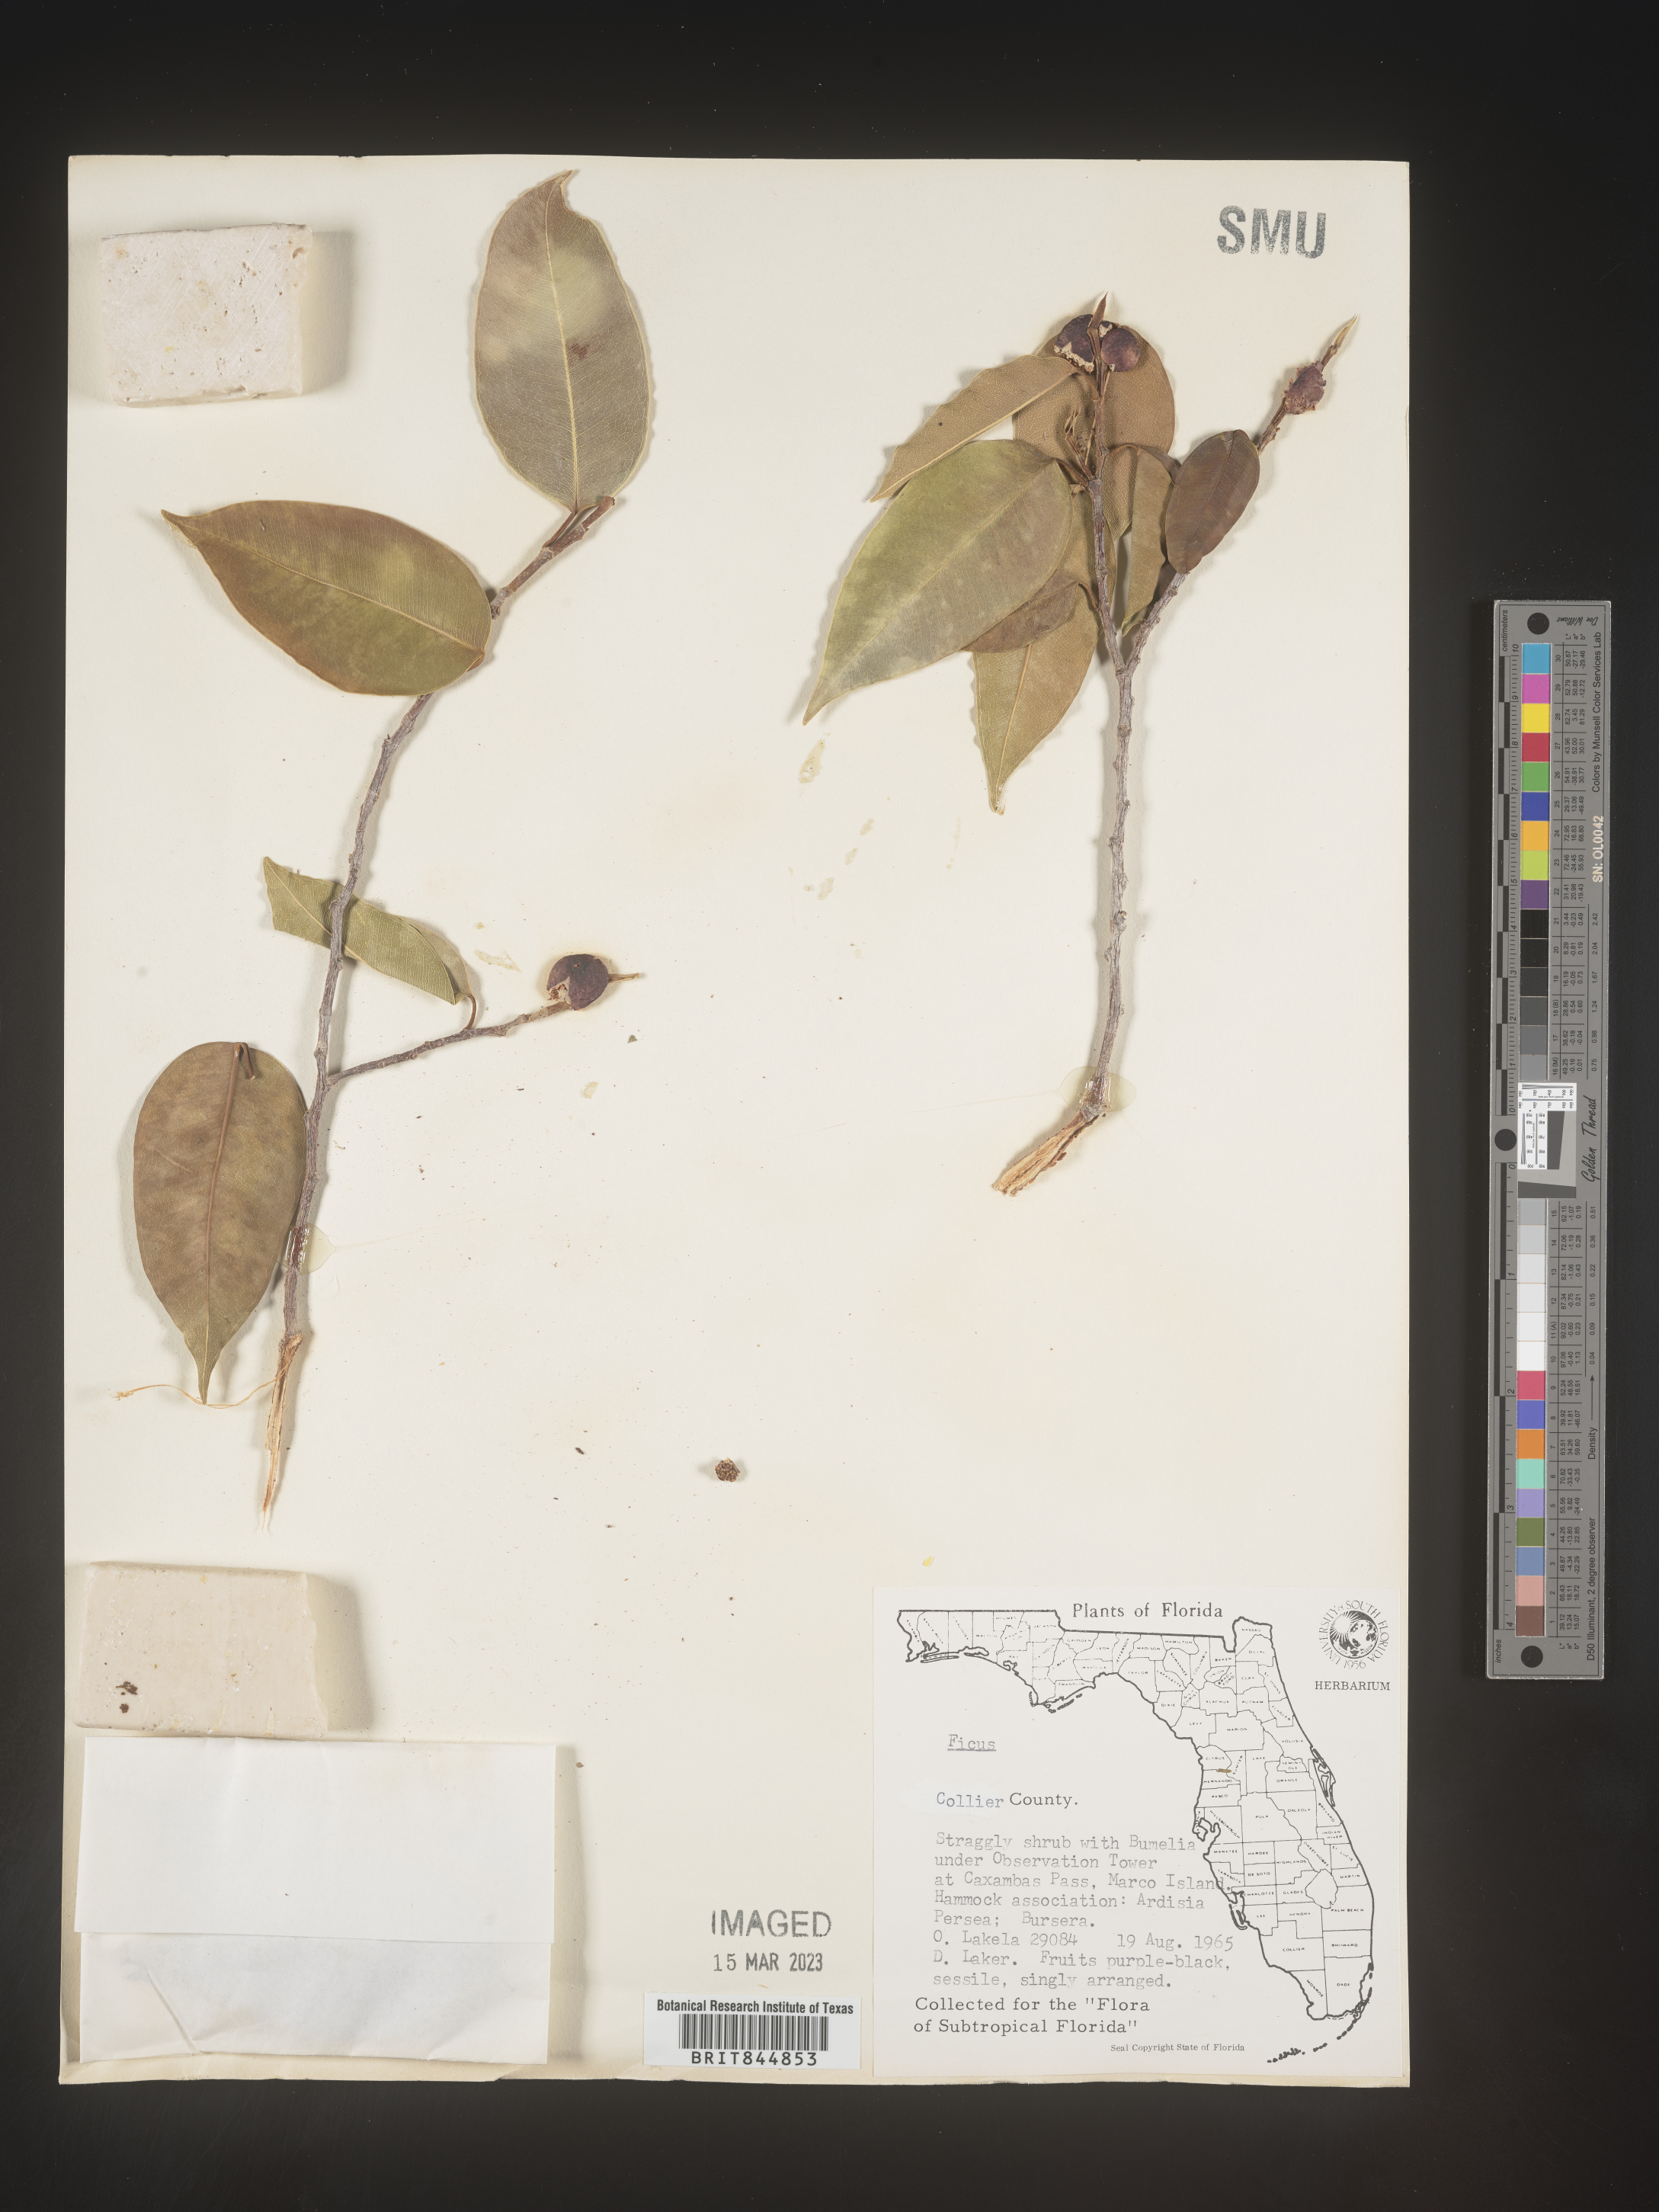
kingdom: Plantae
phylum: Tracheophyta
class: Magnoliopsida
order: Rosales
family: Moraceae
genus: Ficus
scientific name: Ficus
